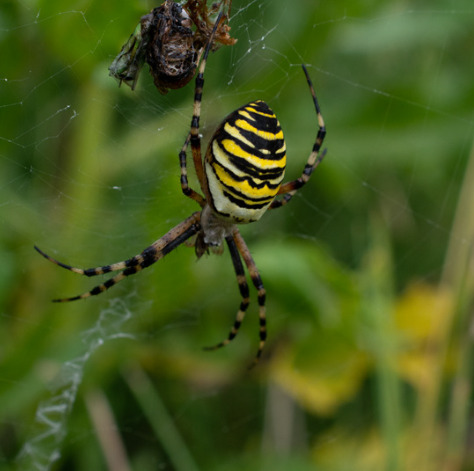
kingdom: Animalia
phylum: Arthropoda
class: Arachnida
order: Araneae
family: Araneidae
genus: Argiope
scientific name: Argiope bruennichi
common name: Hvepseedderkop
